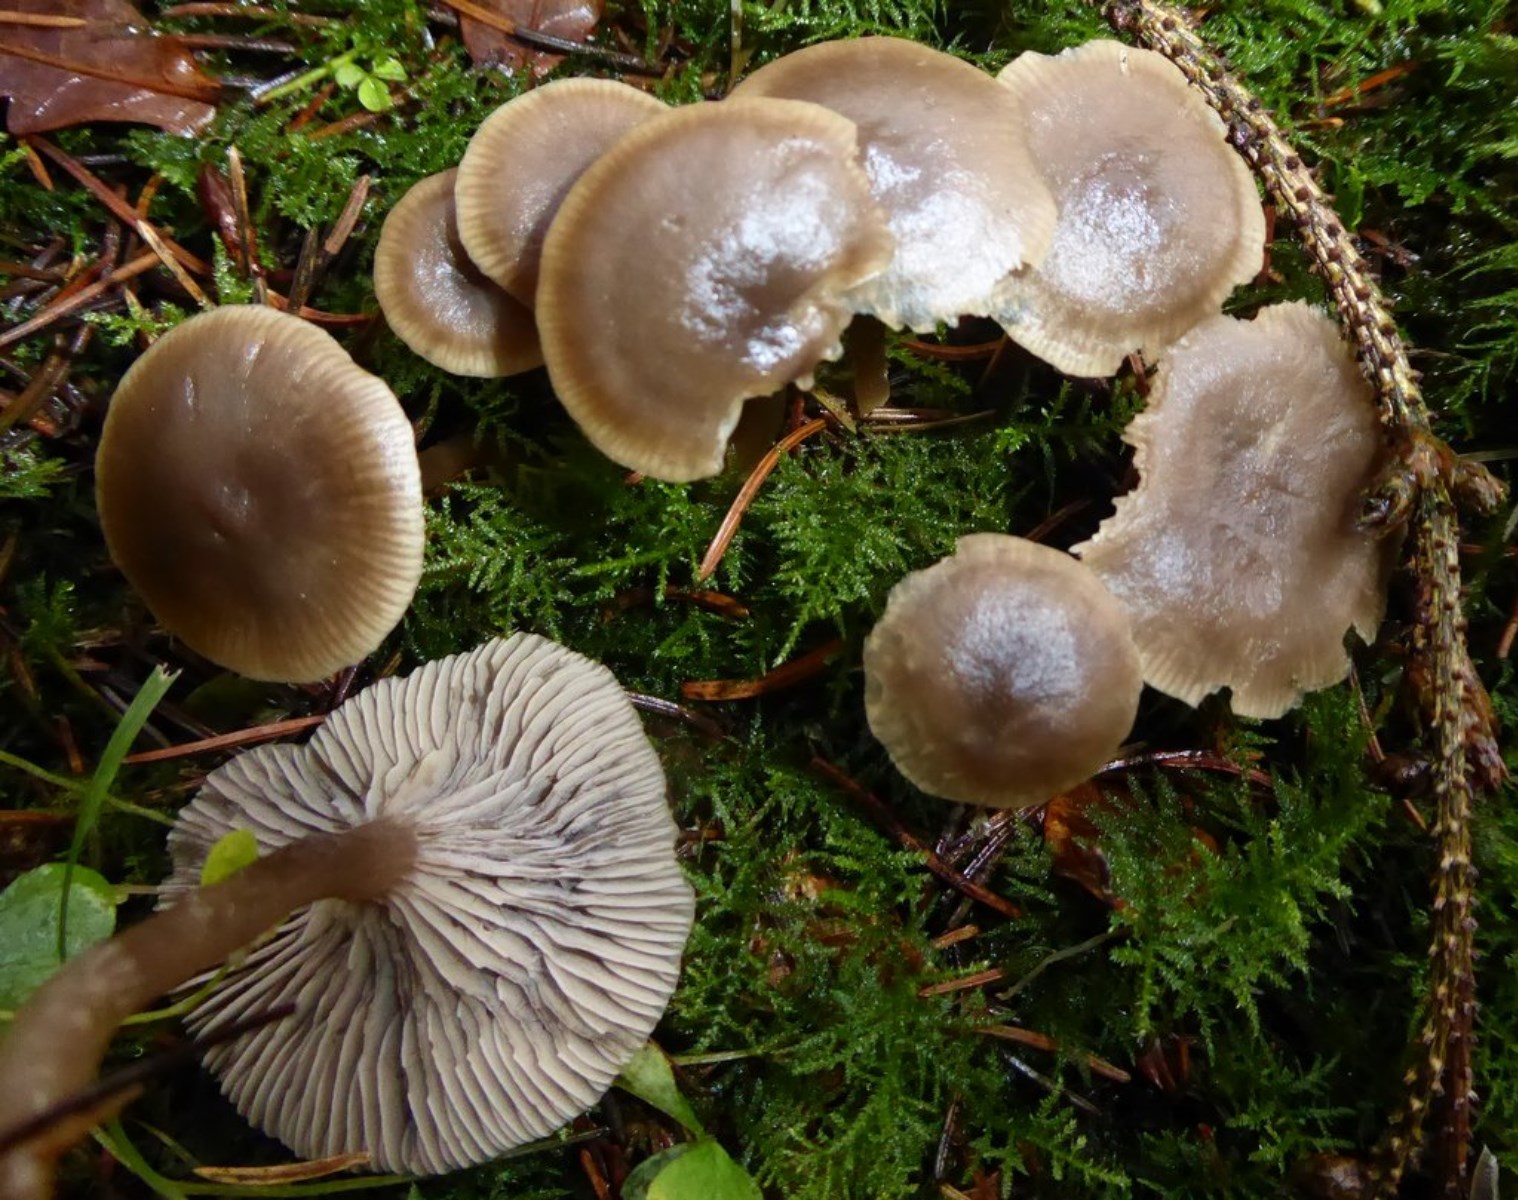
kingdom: Fungi
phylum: Basidiomycota
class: Agaricomycetes
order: Agaricales
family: Tricholomataceae
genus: Clitocybe
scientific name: Clitocybe
